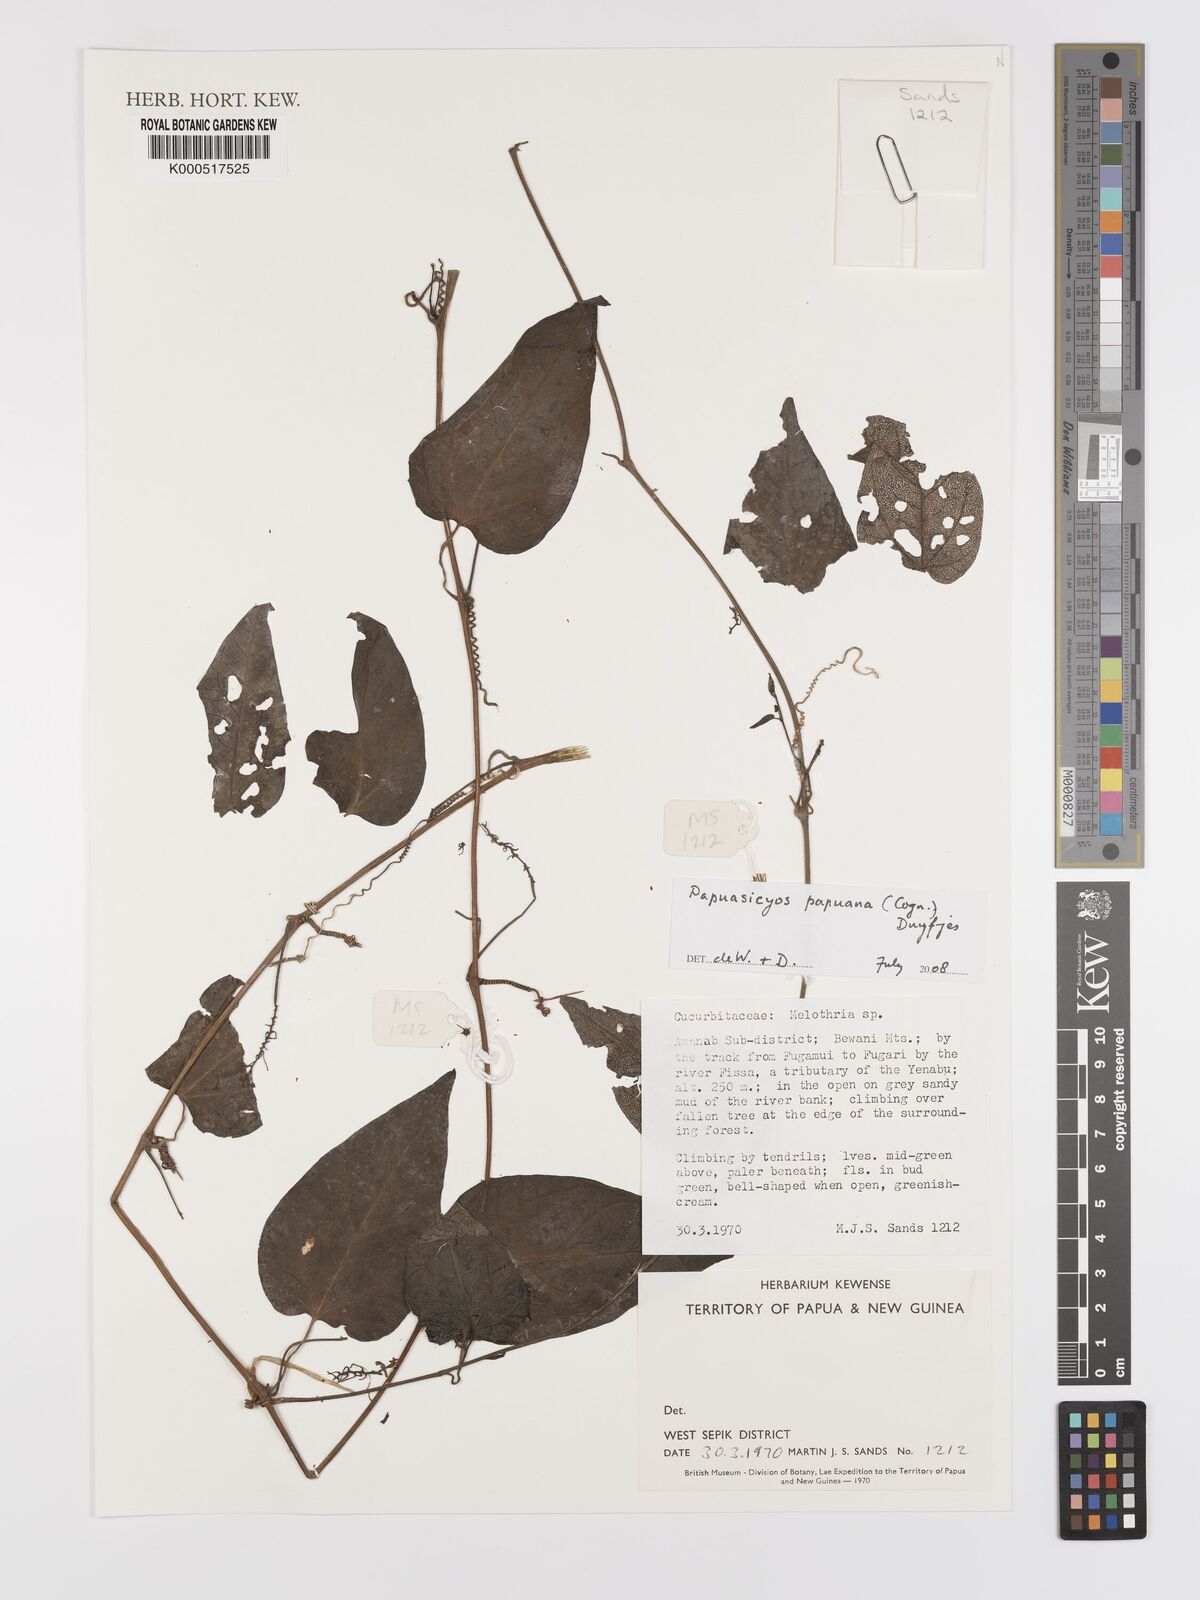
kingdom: Plantae
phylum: Tracheophyta
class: Magnoliopsida
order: Cucurbitales
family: Cucurbitaceae
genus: Papuasicyos
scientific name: Papuasicyos
